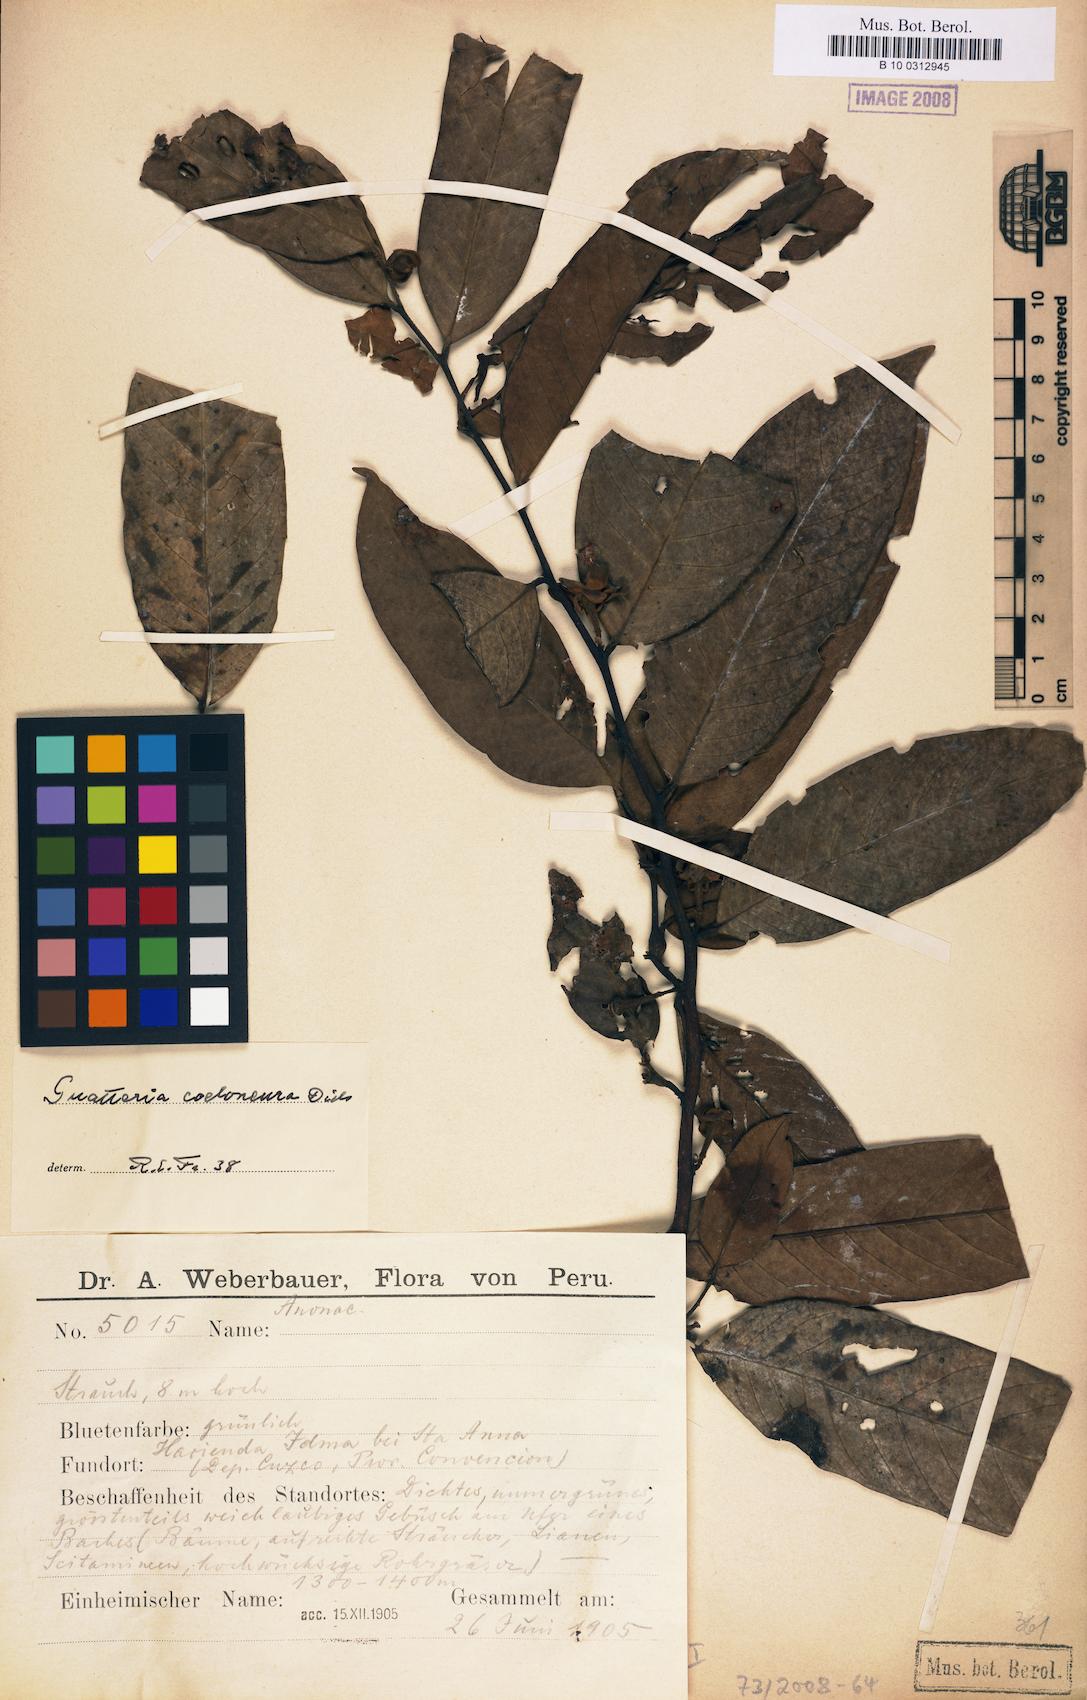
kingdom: Plantae
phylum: Tracheophyta
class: Magnoliopsida
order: Magnoliales
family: Annonaceae
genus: Guatteria
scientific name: Guatteria punctata
